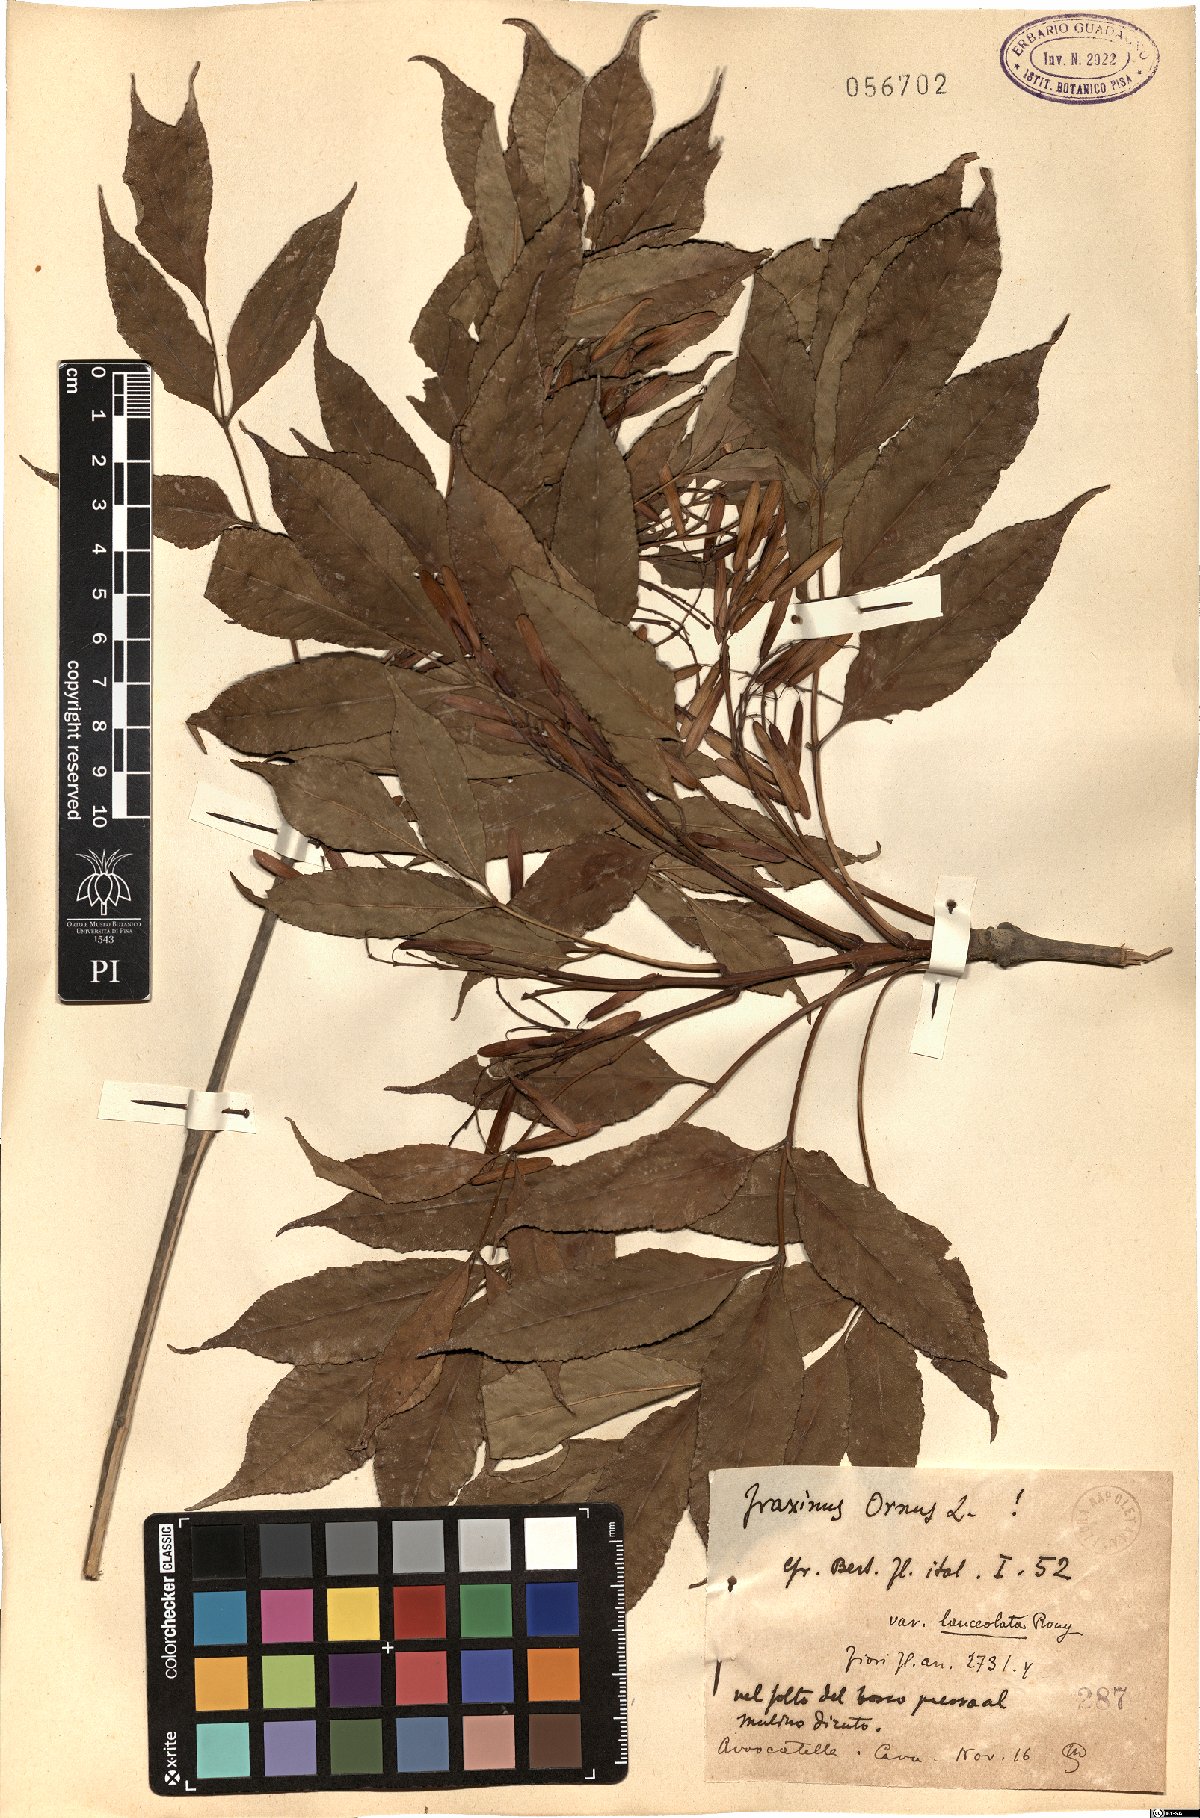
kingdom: Plantae
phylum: Tracheophyta
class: Magnoliopsida
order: Lamiales
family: Oleaceae
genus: Fraxinus
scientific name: Fraxinus ornus
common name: Manna ash
